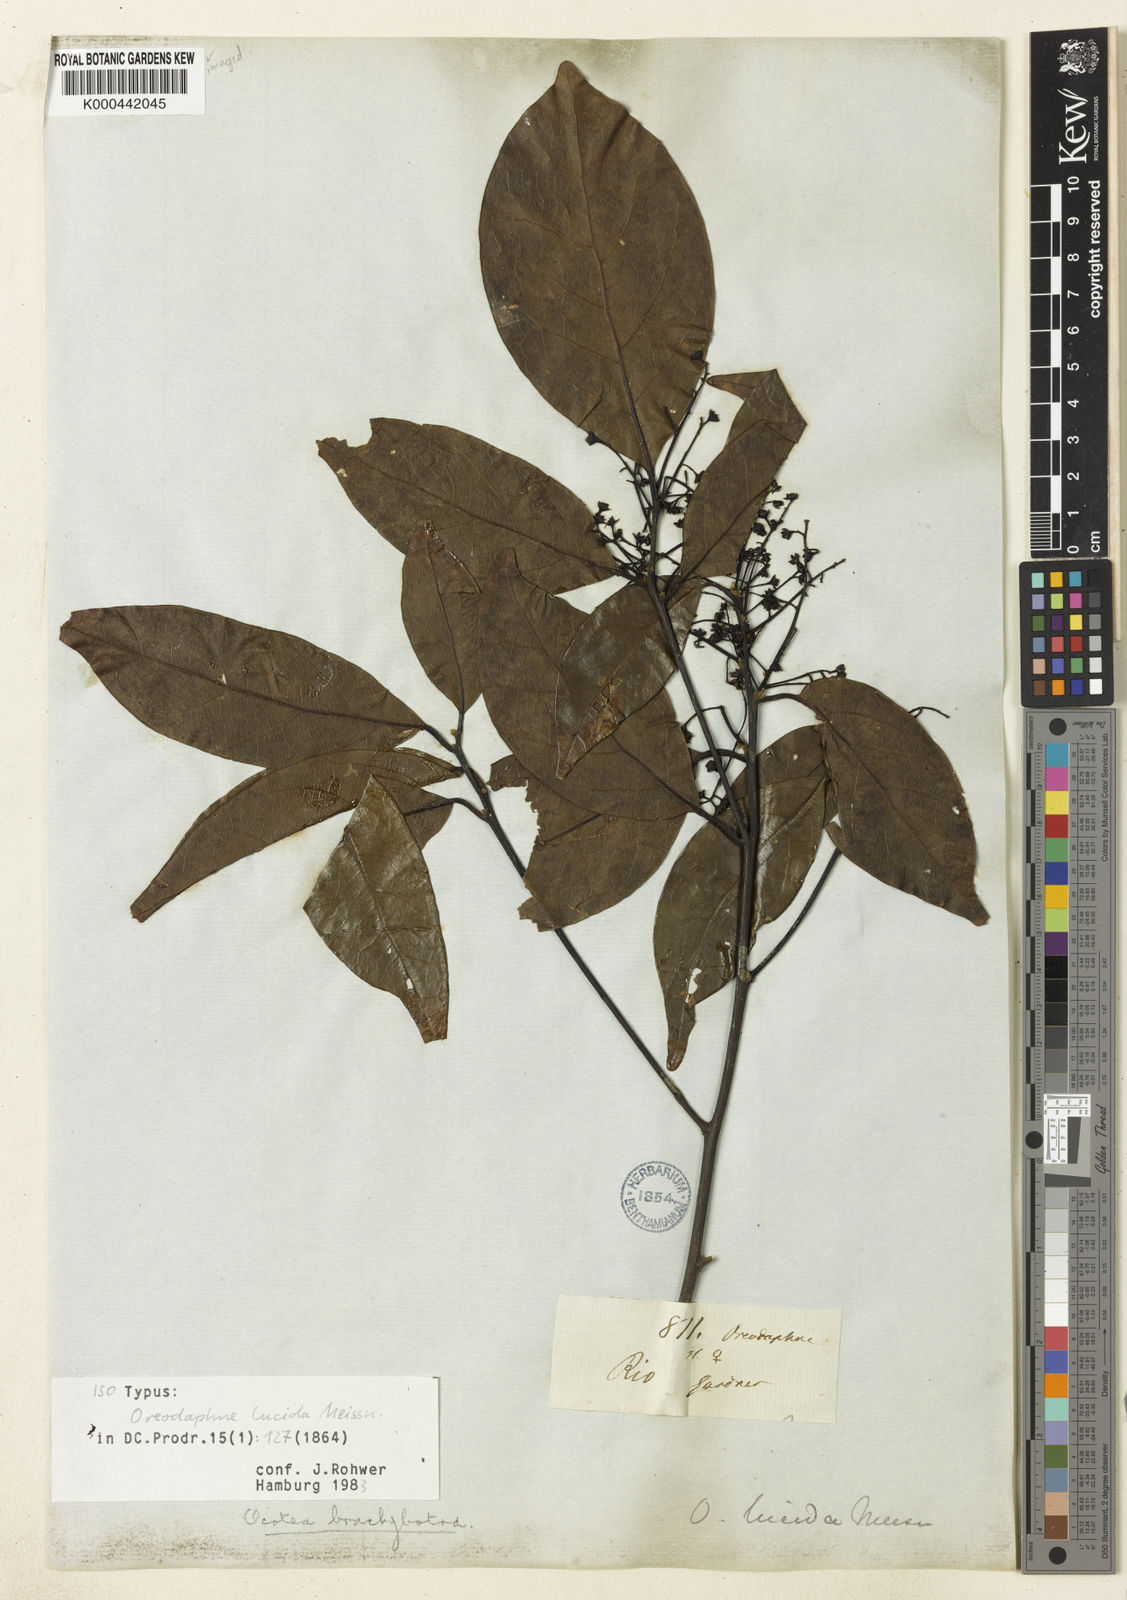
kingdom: Plantae
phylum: Tracheophyta
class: Magnoliopsida
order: Laurales
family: Lauraceae
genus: Ocotea
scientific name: Ocotea brachybotra
